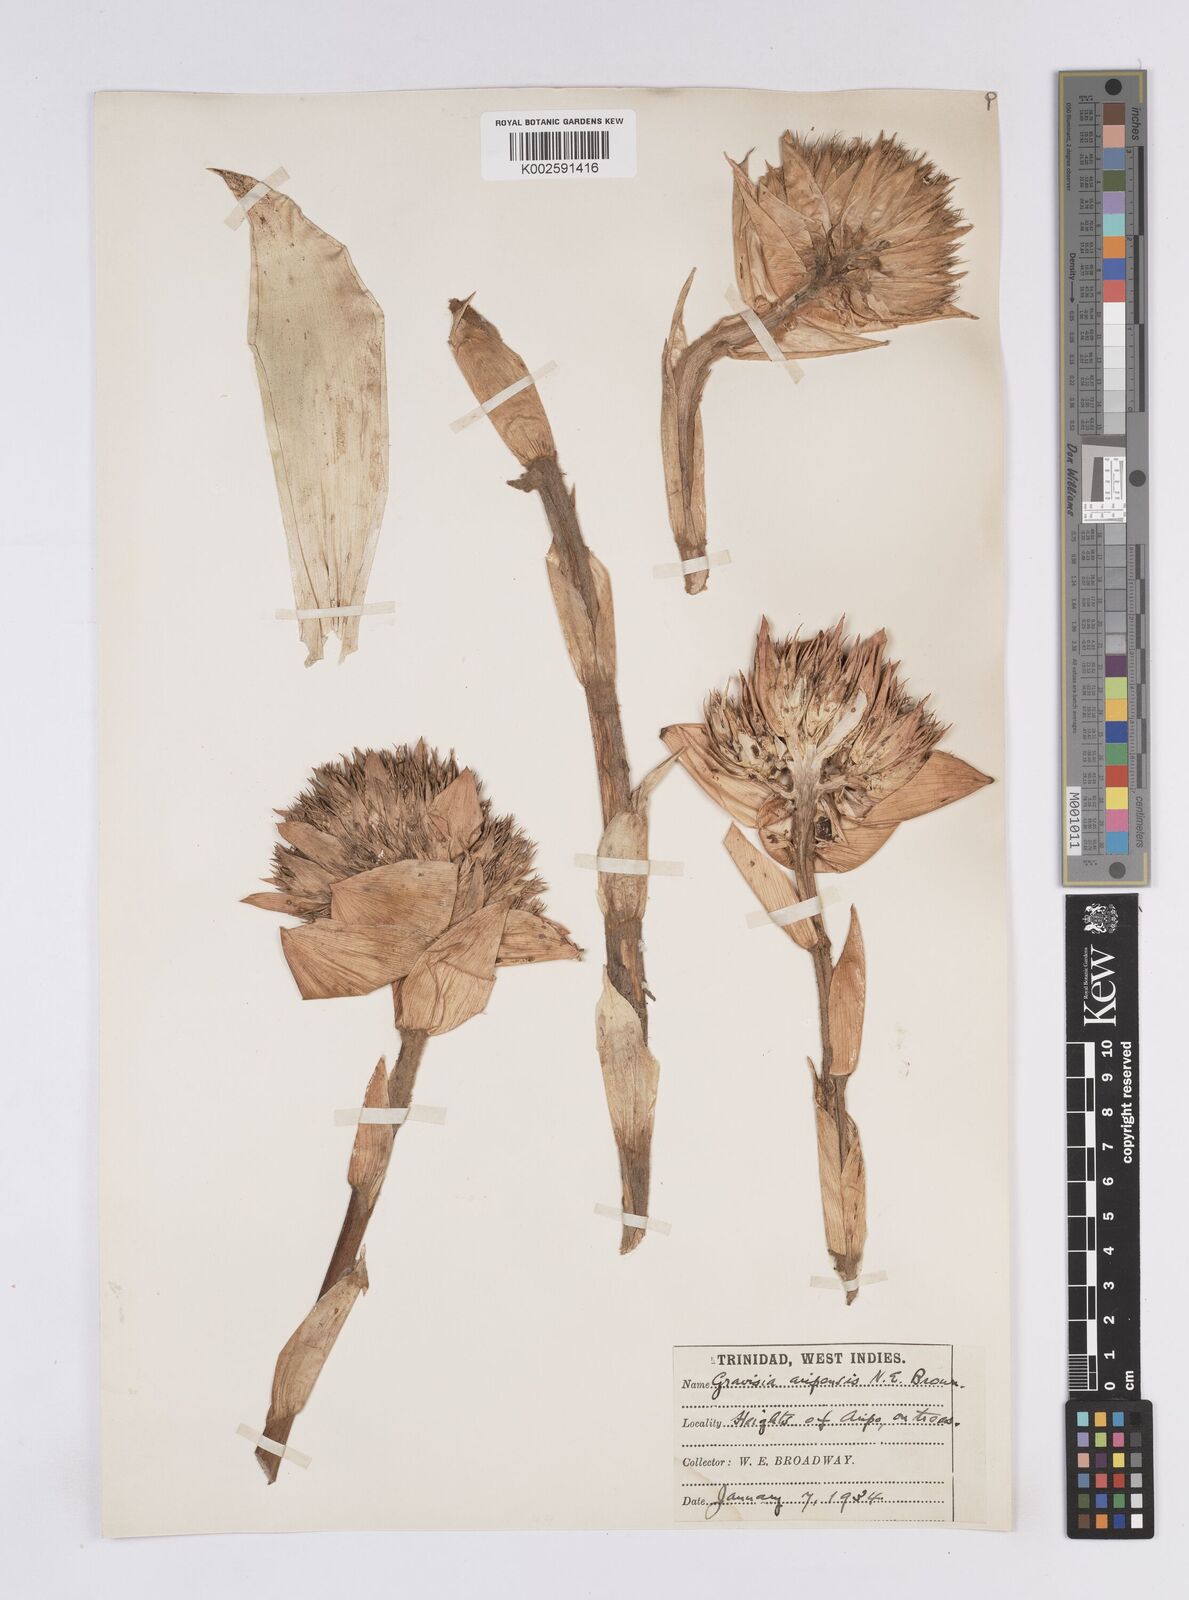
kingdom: Plantae
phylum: Tracheophyta
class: Liliopsida
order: Poales
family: Bromeliaceae
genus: Aechmea
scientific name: Aechmea
